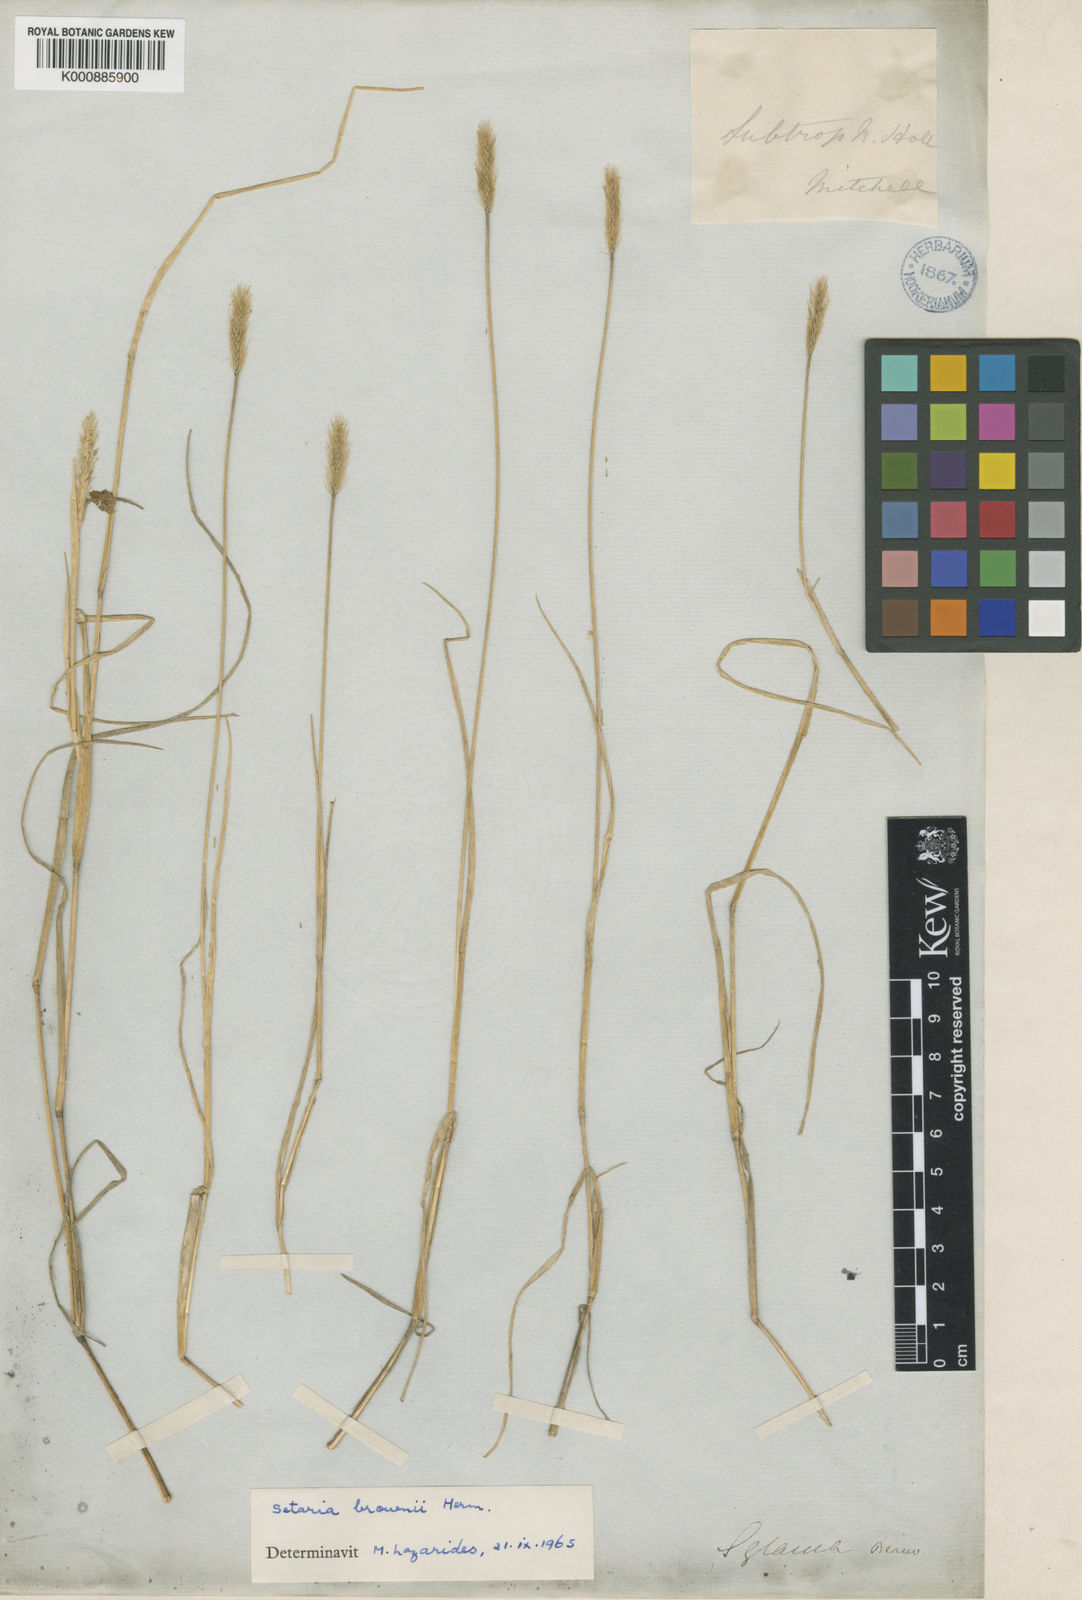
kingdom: Plantae
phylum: Tracheophyta
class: Liliopsida
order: Poales
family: Poaceae
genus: Setaria
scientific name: Setaria apiculata
